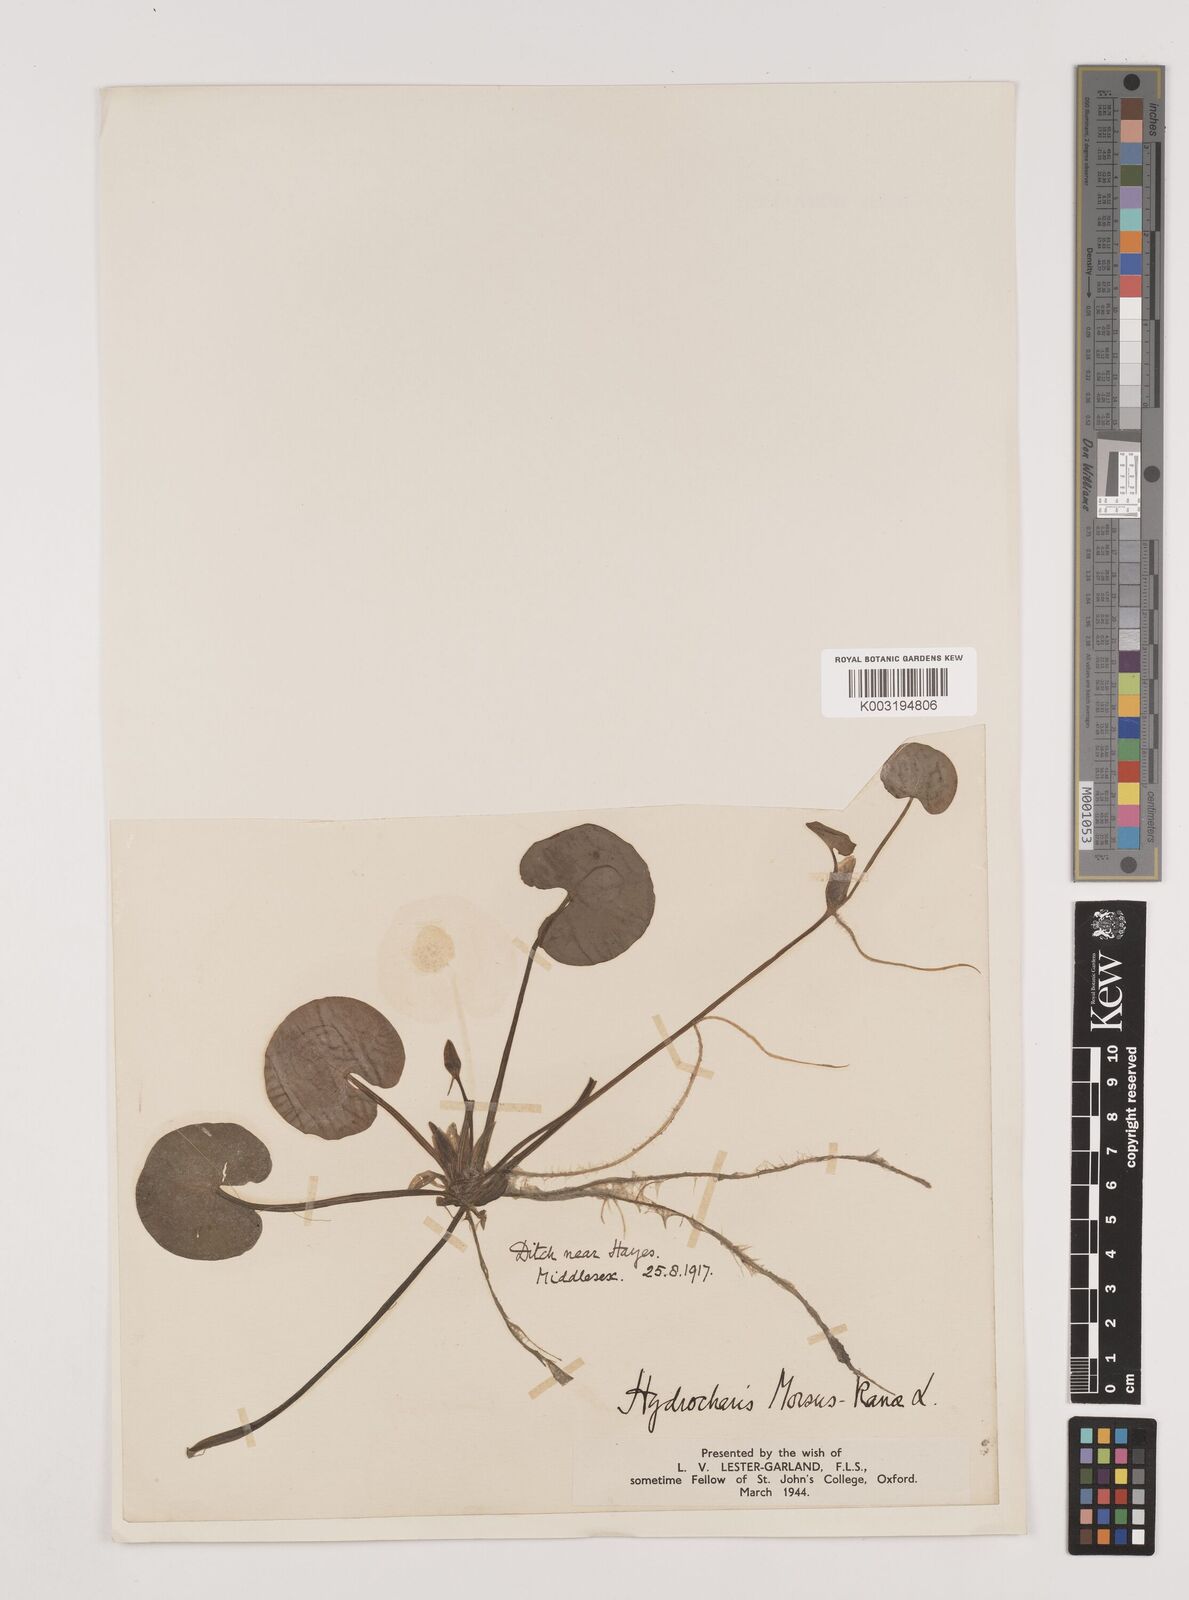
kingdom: Plantae
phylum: Tracheophyta
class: Liliopsida
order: Alismatales
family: Hydrocharitaceae
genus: Hydrocharis
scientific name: Hydrocharis morsus-ranae
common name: Frogbit
